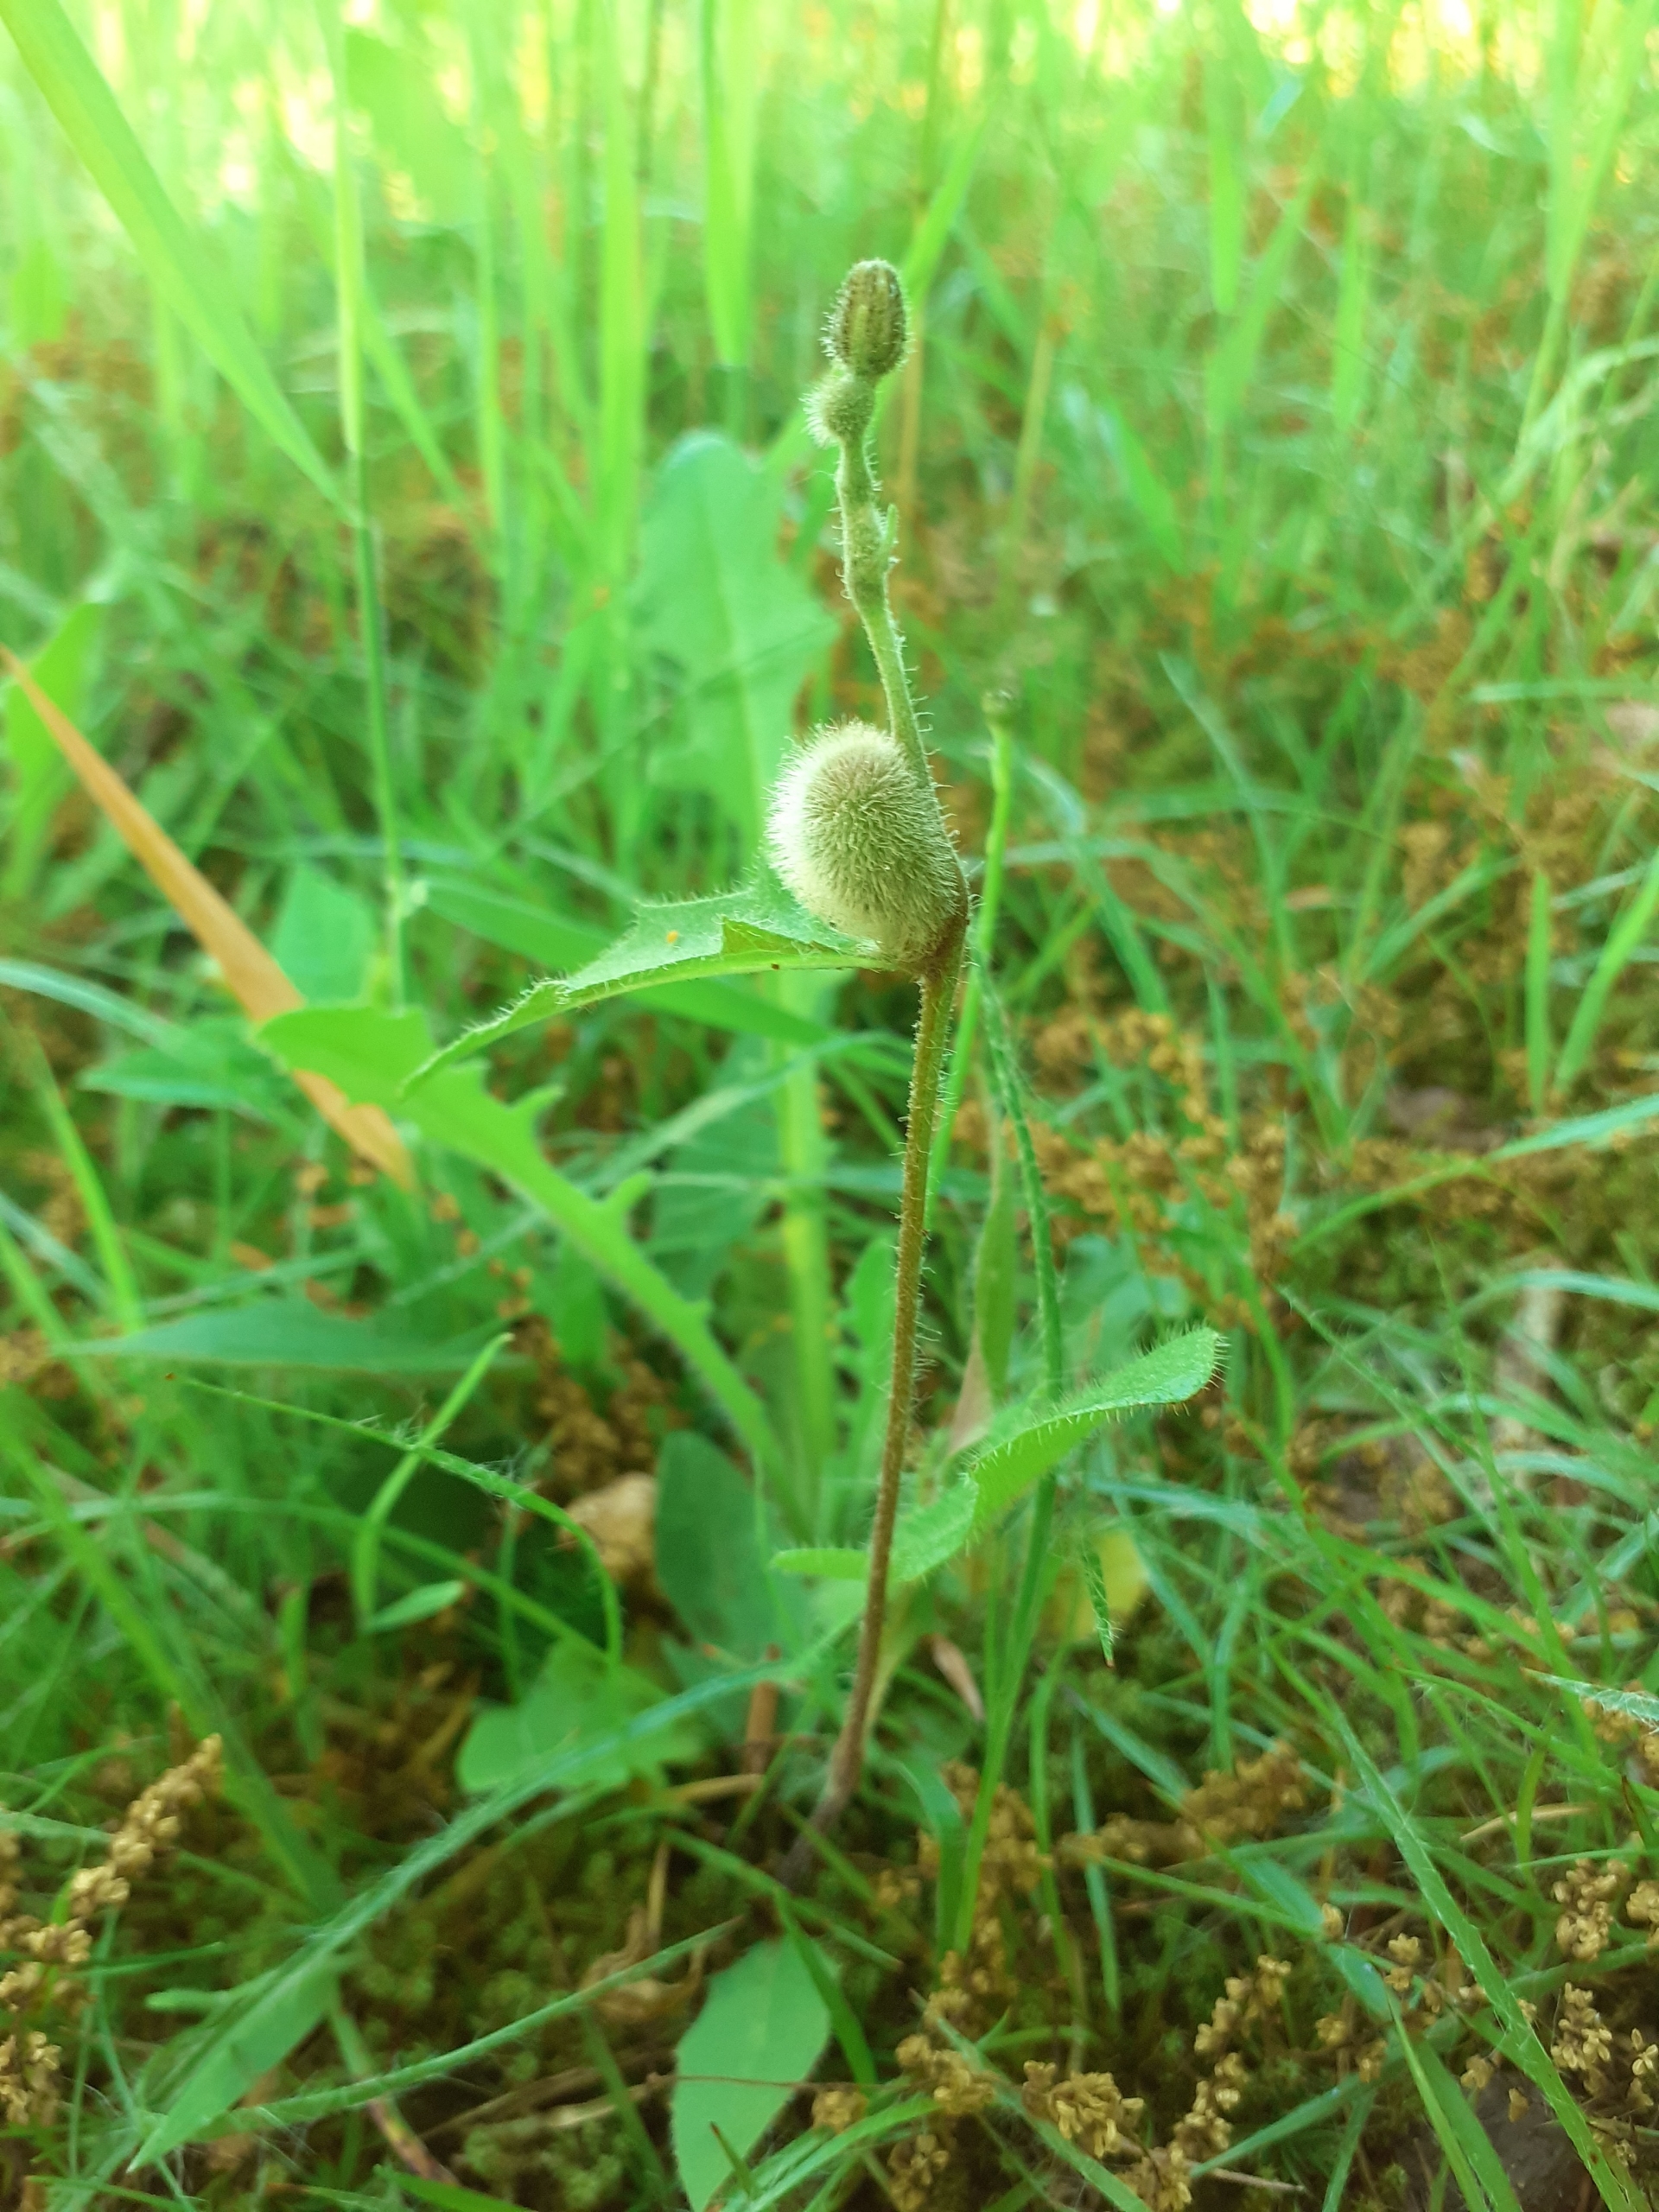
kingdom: Animalia
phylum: Arthropoda
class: Insecta
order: Hymenoptera
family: Cynipidae
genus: Aulacidea
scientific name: Aulacidea hieracii
